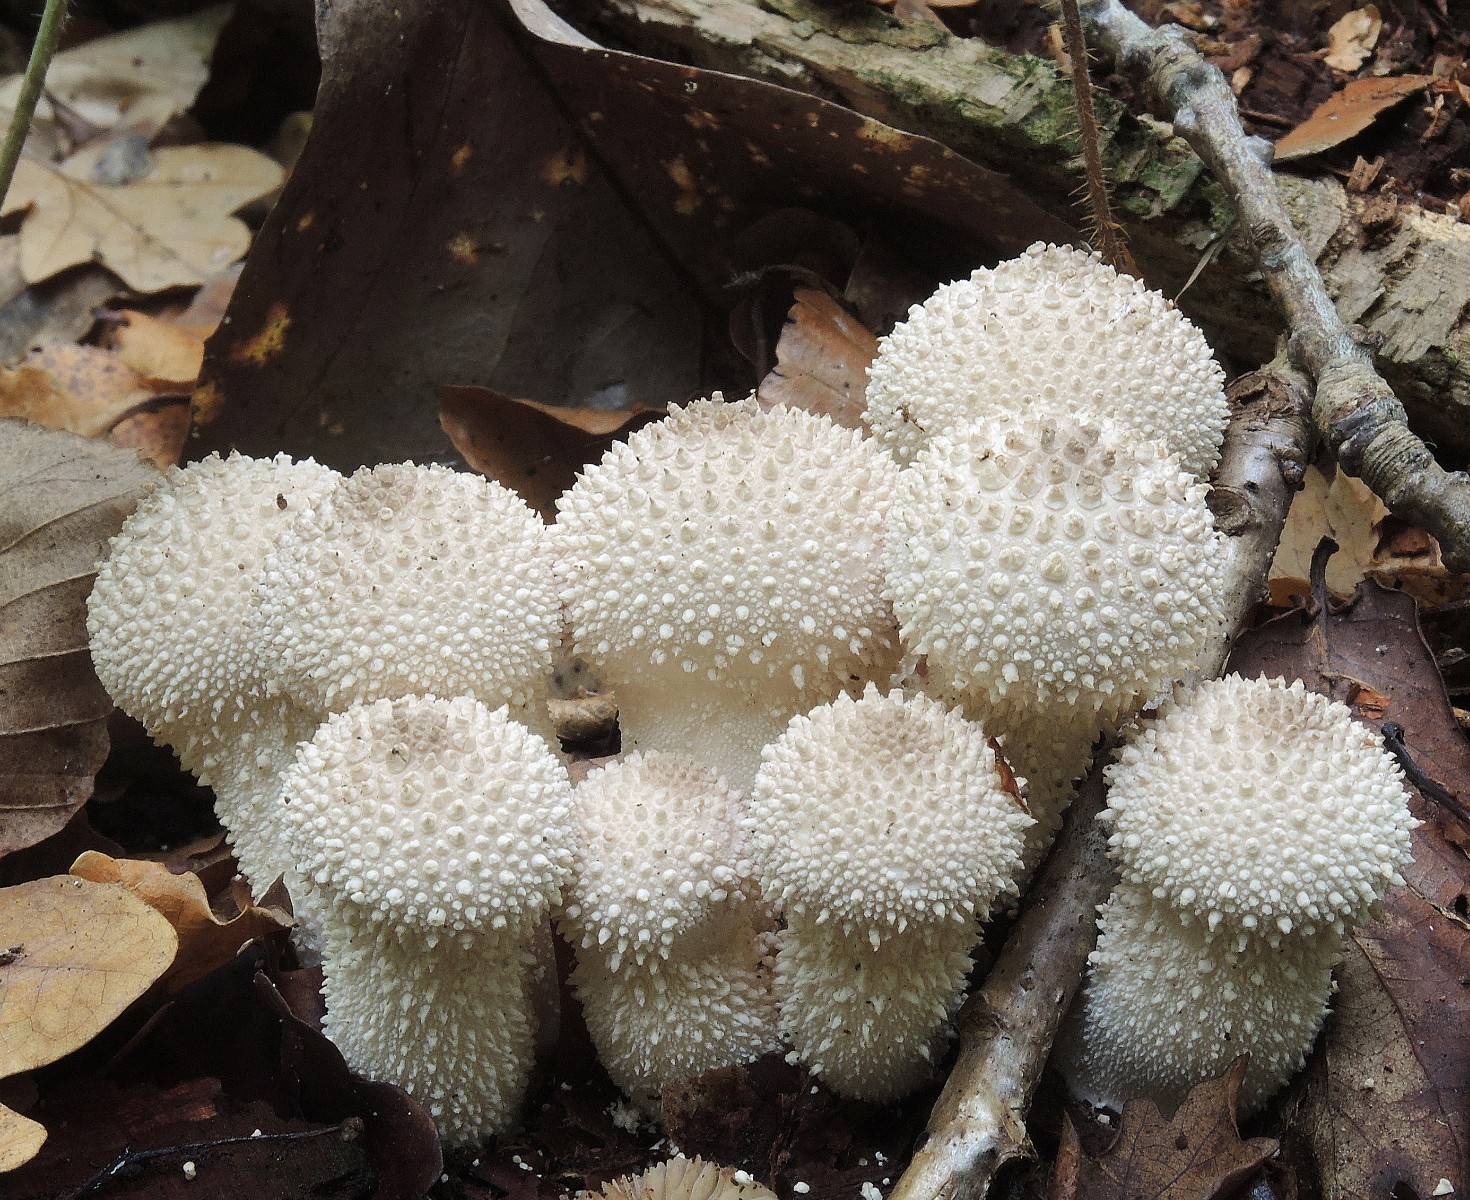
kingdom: Fungi
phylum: Basidiomycota
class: Agaricomycetes
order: Agaricales
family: Lycoperdaceae
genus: Lycoperdon
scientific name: Lycoperdon perlatum
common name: krystal-støvbold
